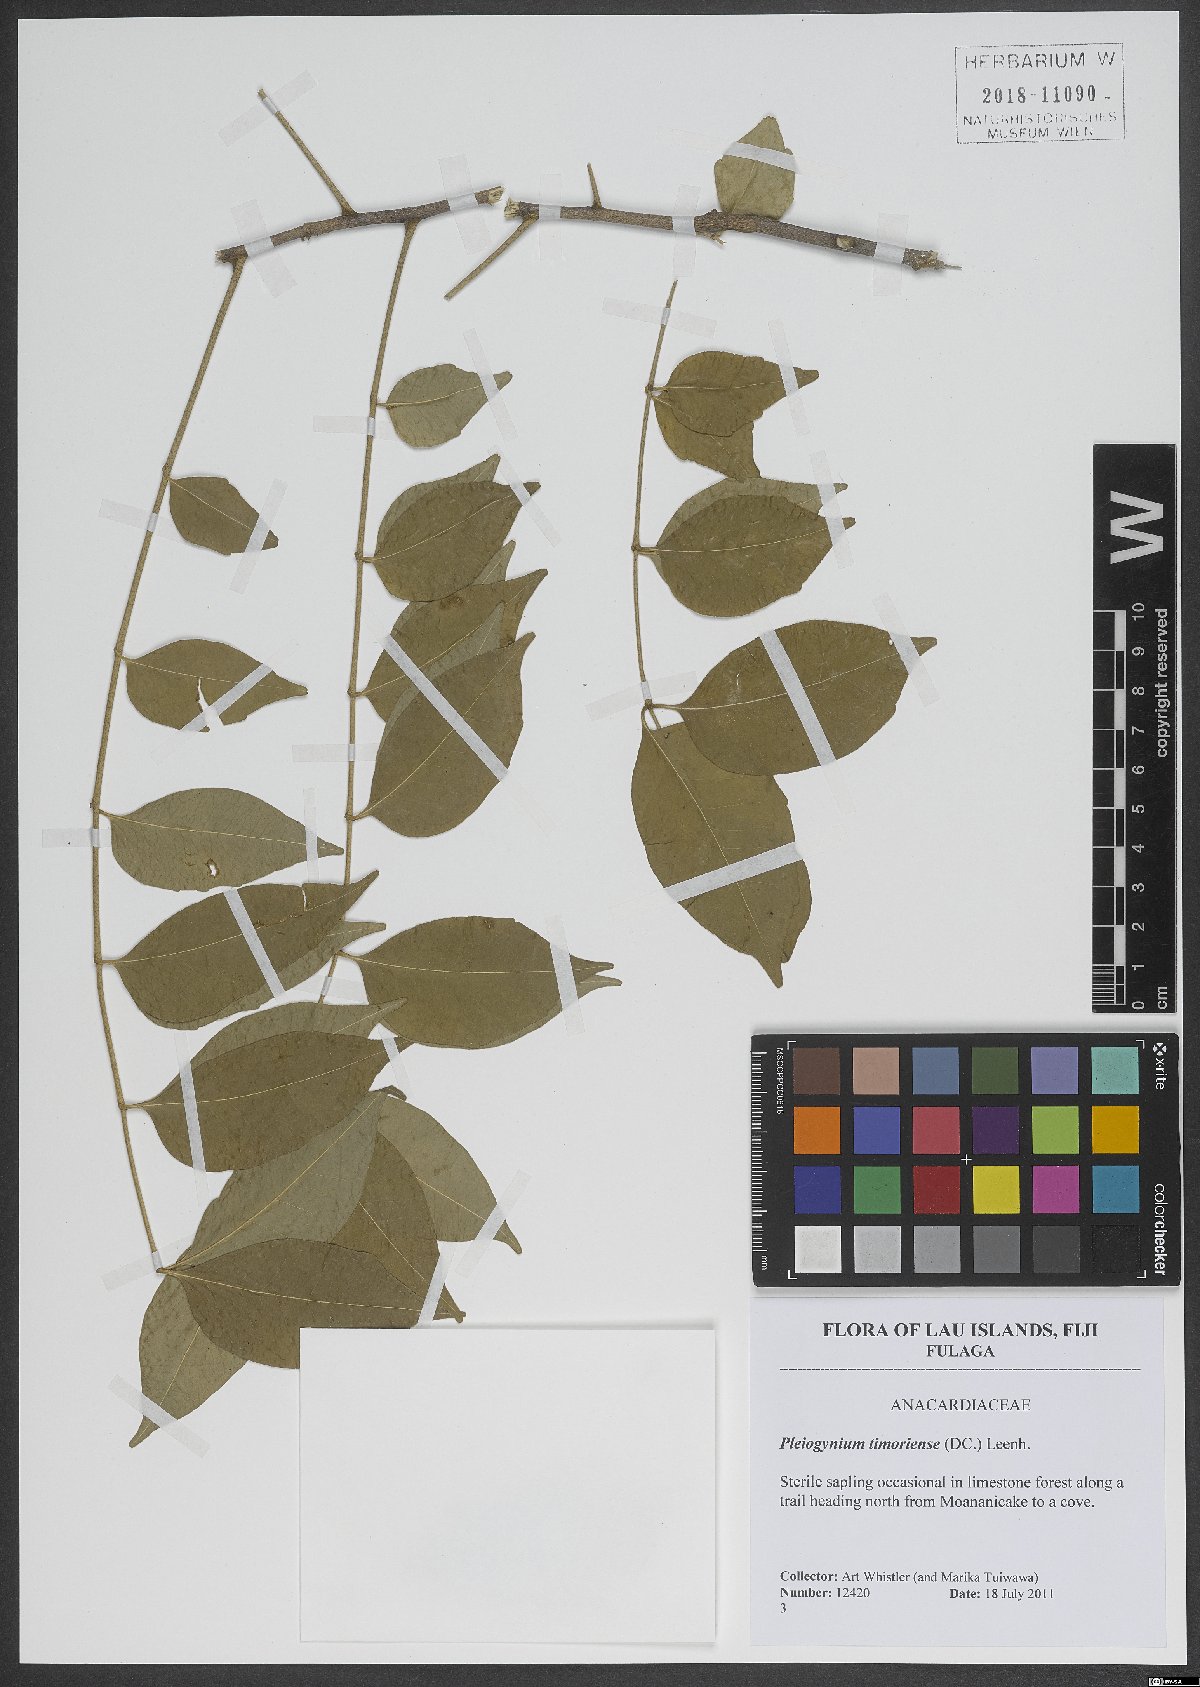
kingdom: Plantae
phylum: Tracheophyta
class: Magnoliopsida
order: Sapindales
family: Anacardiaceae
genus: Pleiogynium
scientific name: Pleiogynium timoriense
